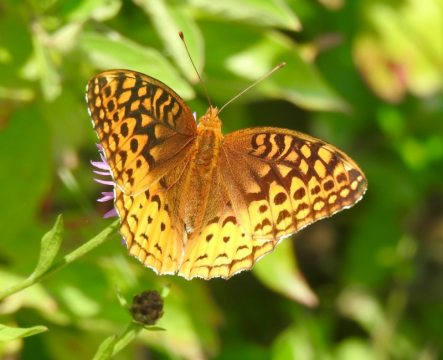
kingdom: Animalia
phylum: Arthropoda
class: Insecta
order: Lepidoptera
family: Nymphalidae
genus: Speyeria
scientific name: Speyeria cybele
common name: Great Spangled Fritillary
